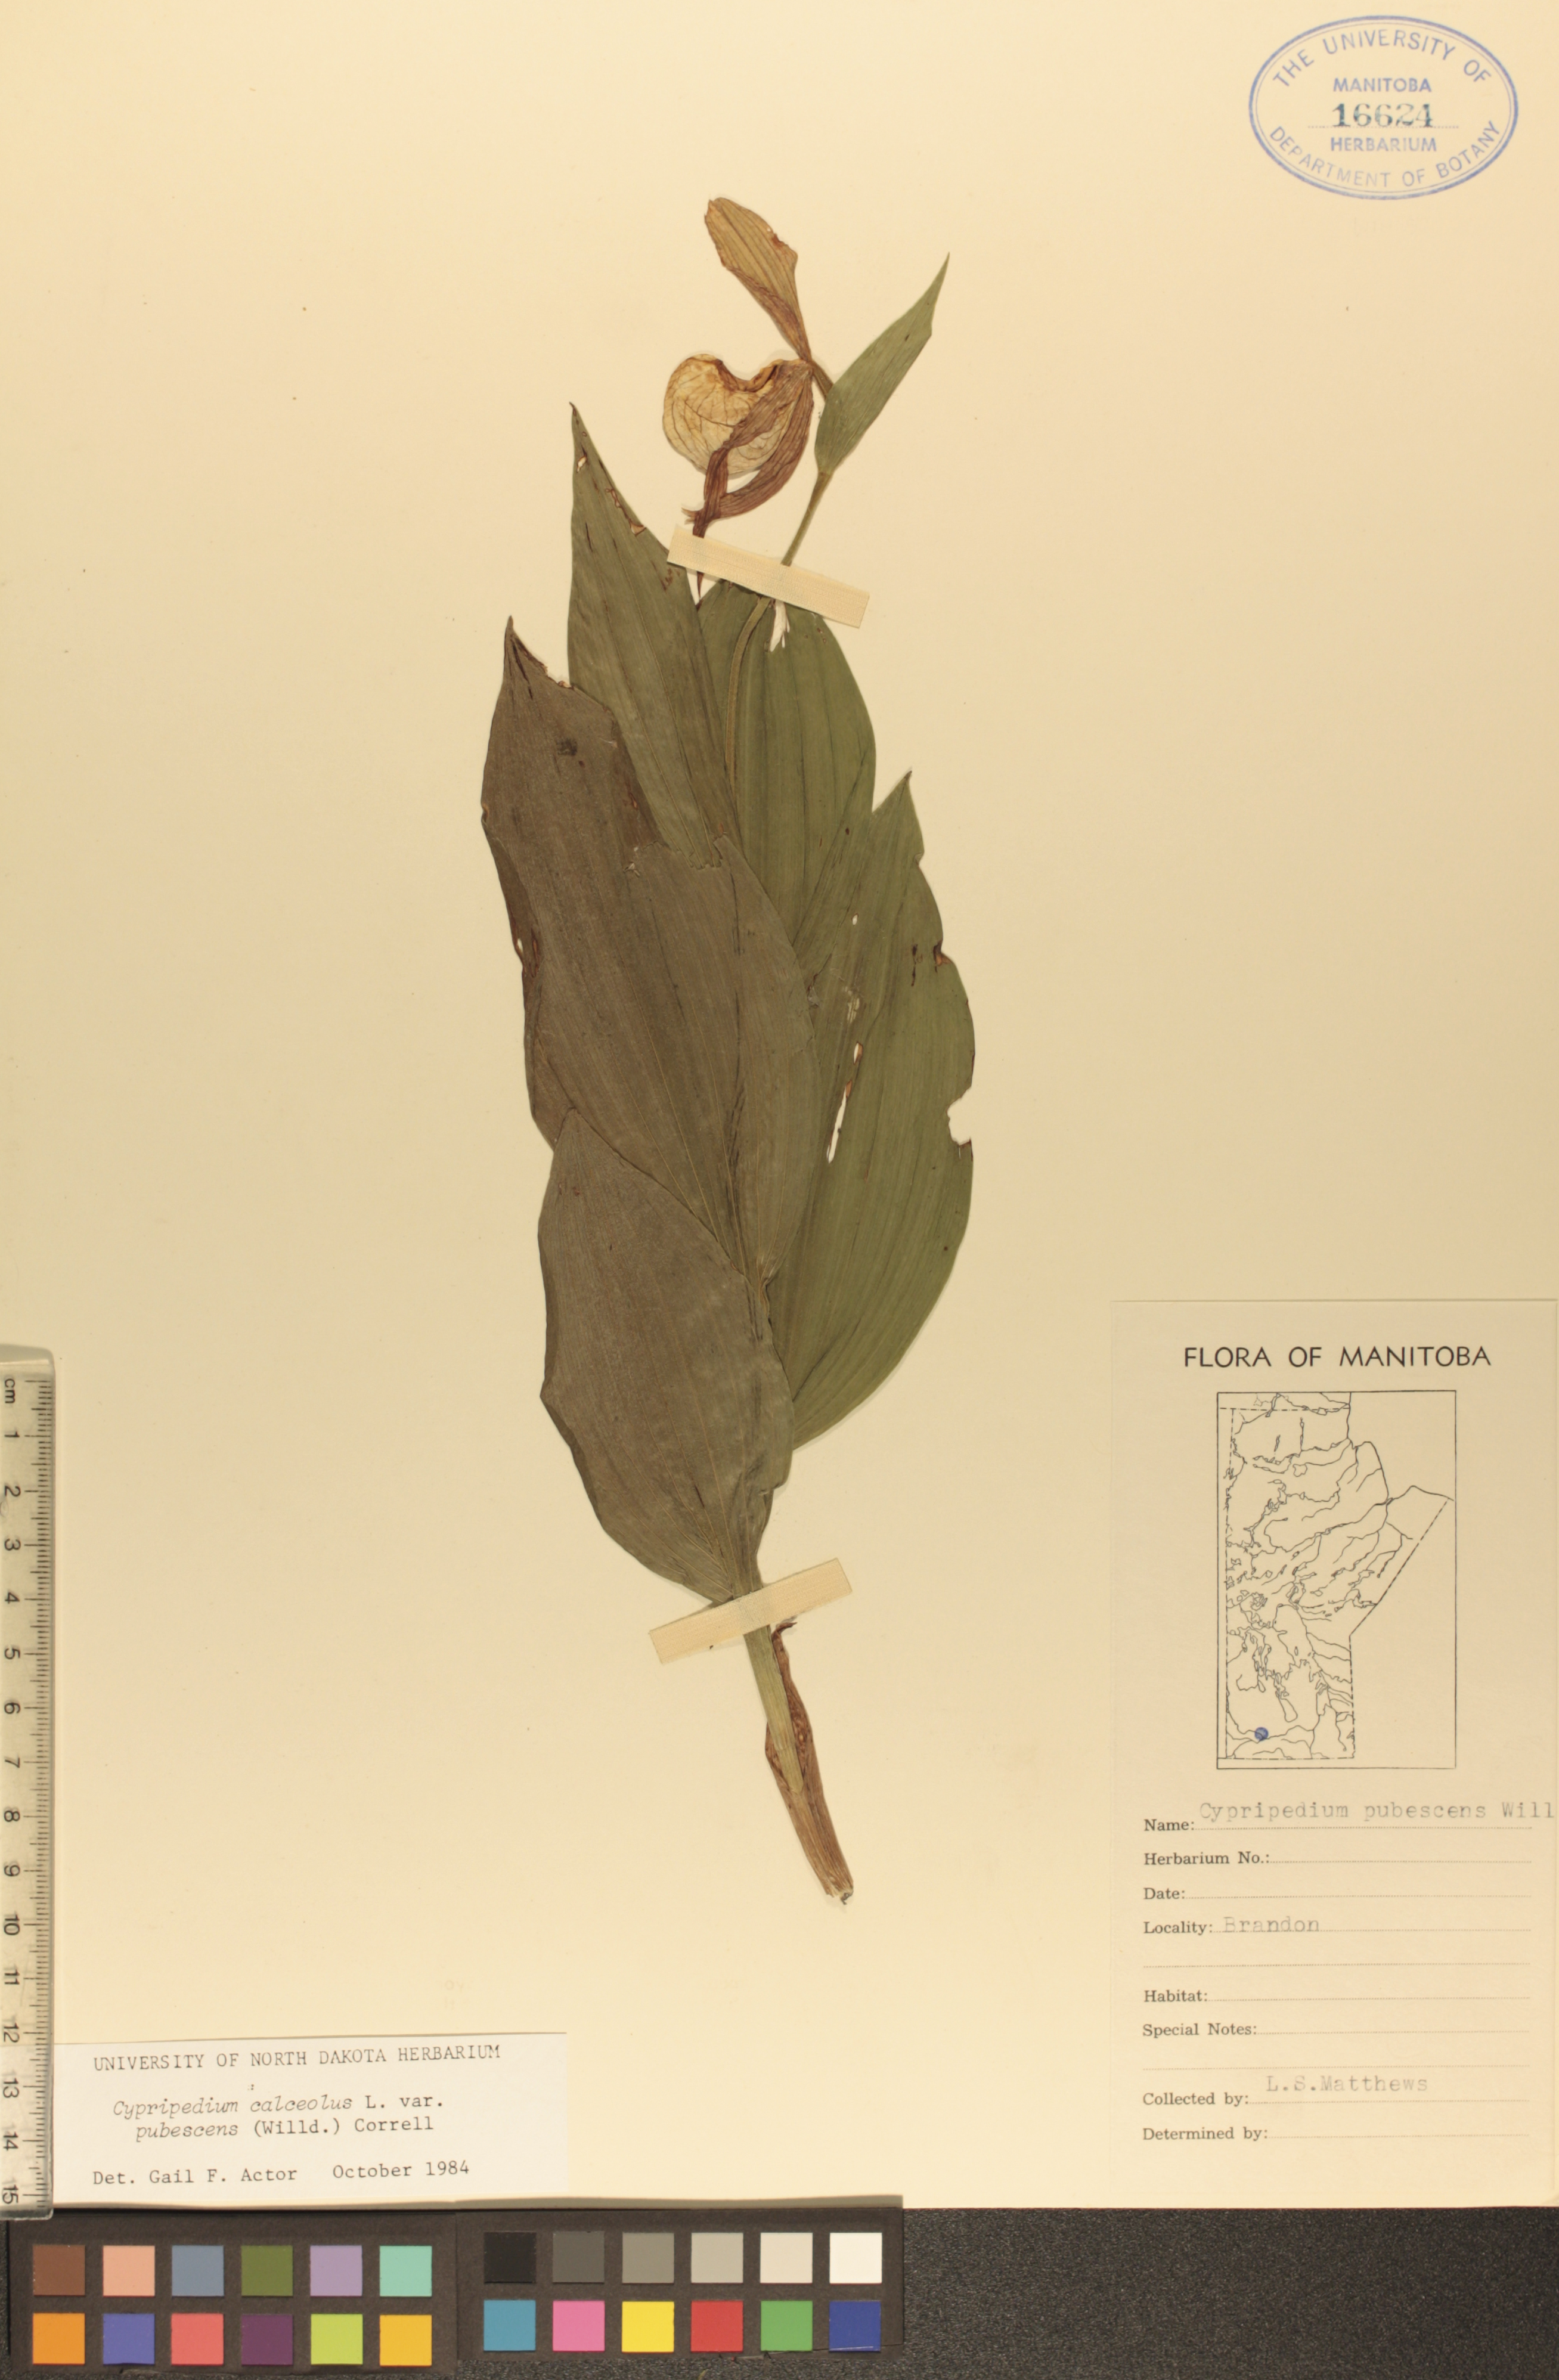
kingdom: Plantae
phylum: Tracheophyta
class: Liliopsida
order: Asparagales
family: Orchidaceae
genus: Cypripedium
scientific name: Cypripedium parviflorum
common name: American yellow lady's-slipper
